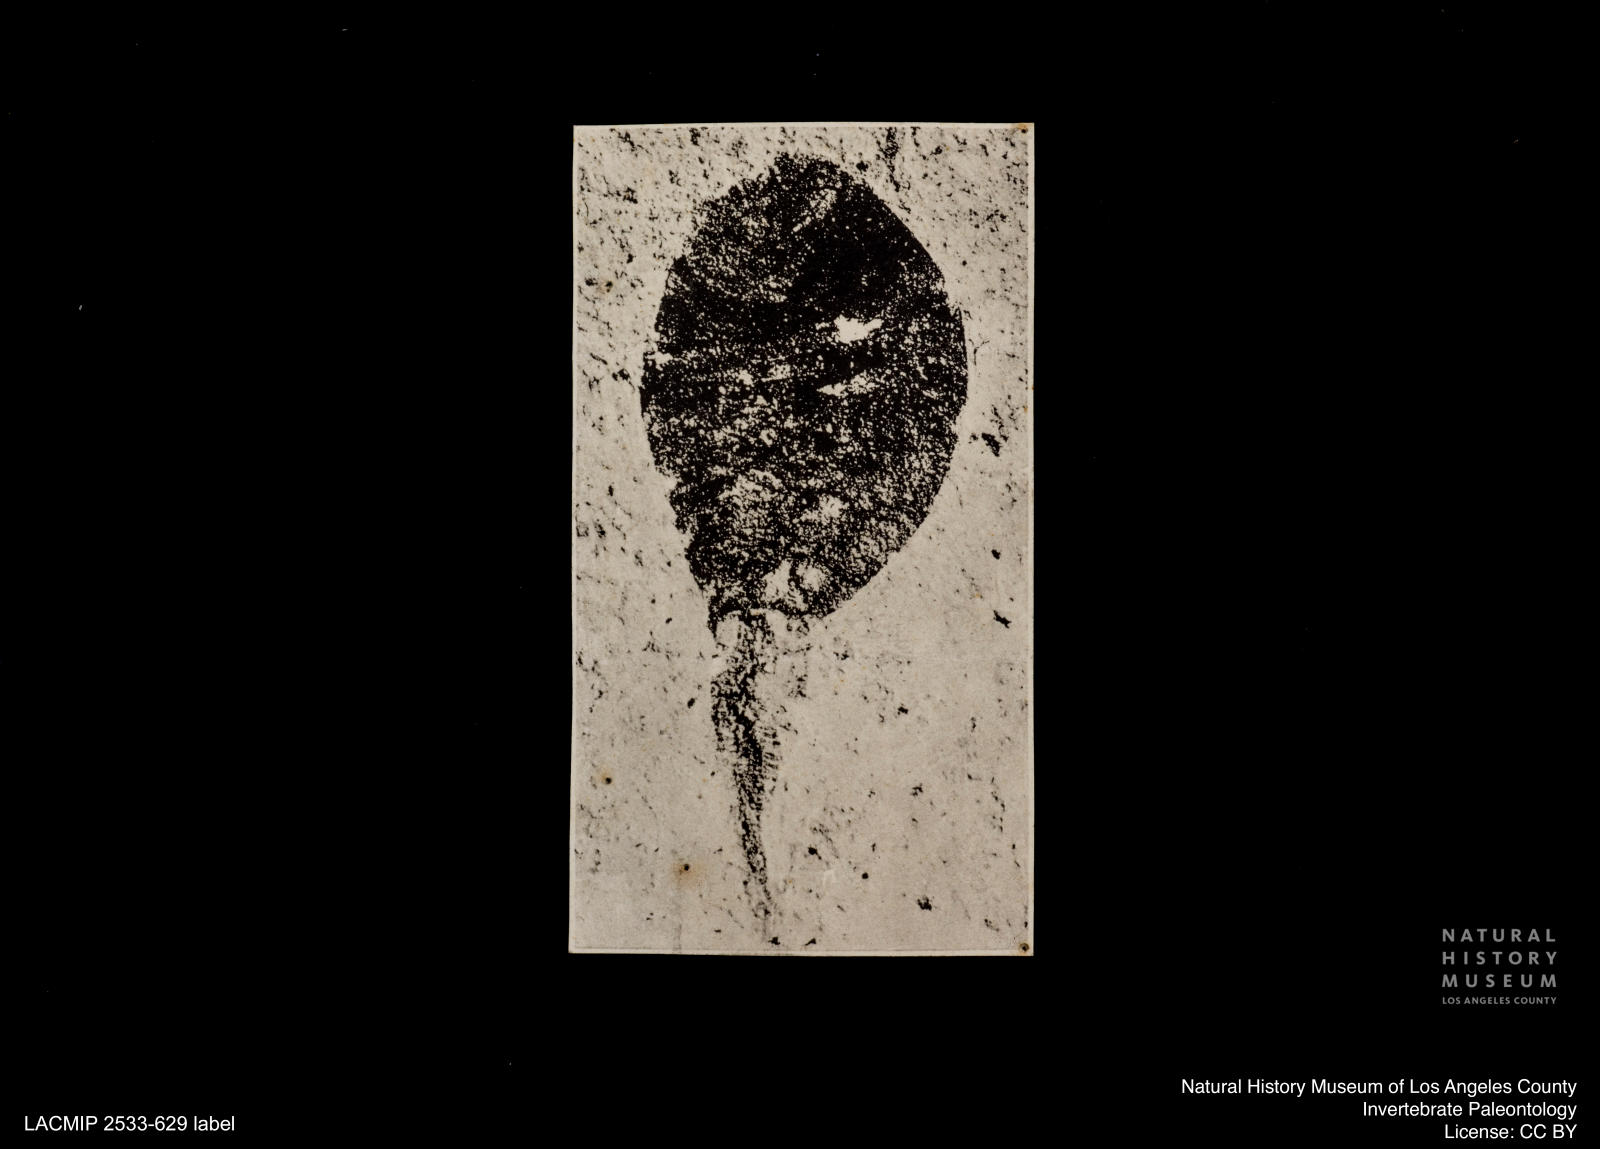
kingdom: Animalia
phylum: Arthropoda
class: Insecta
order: Diptera
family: Syrphidae
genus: Eristalis
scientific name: Eristalis
